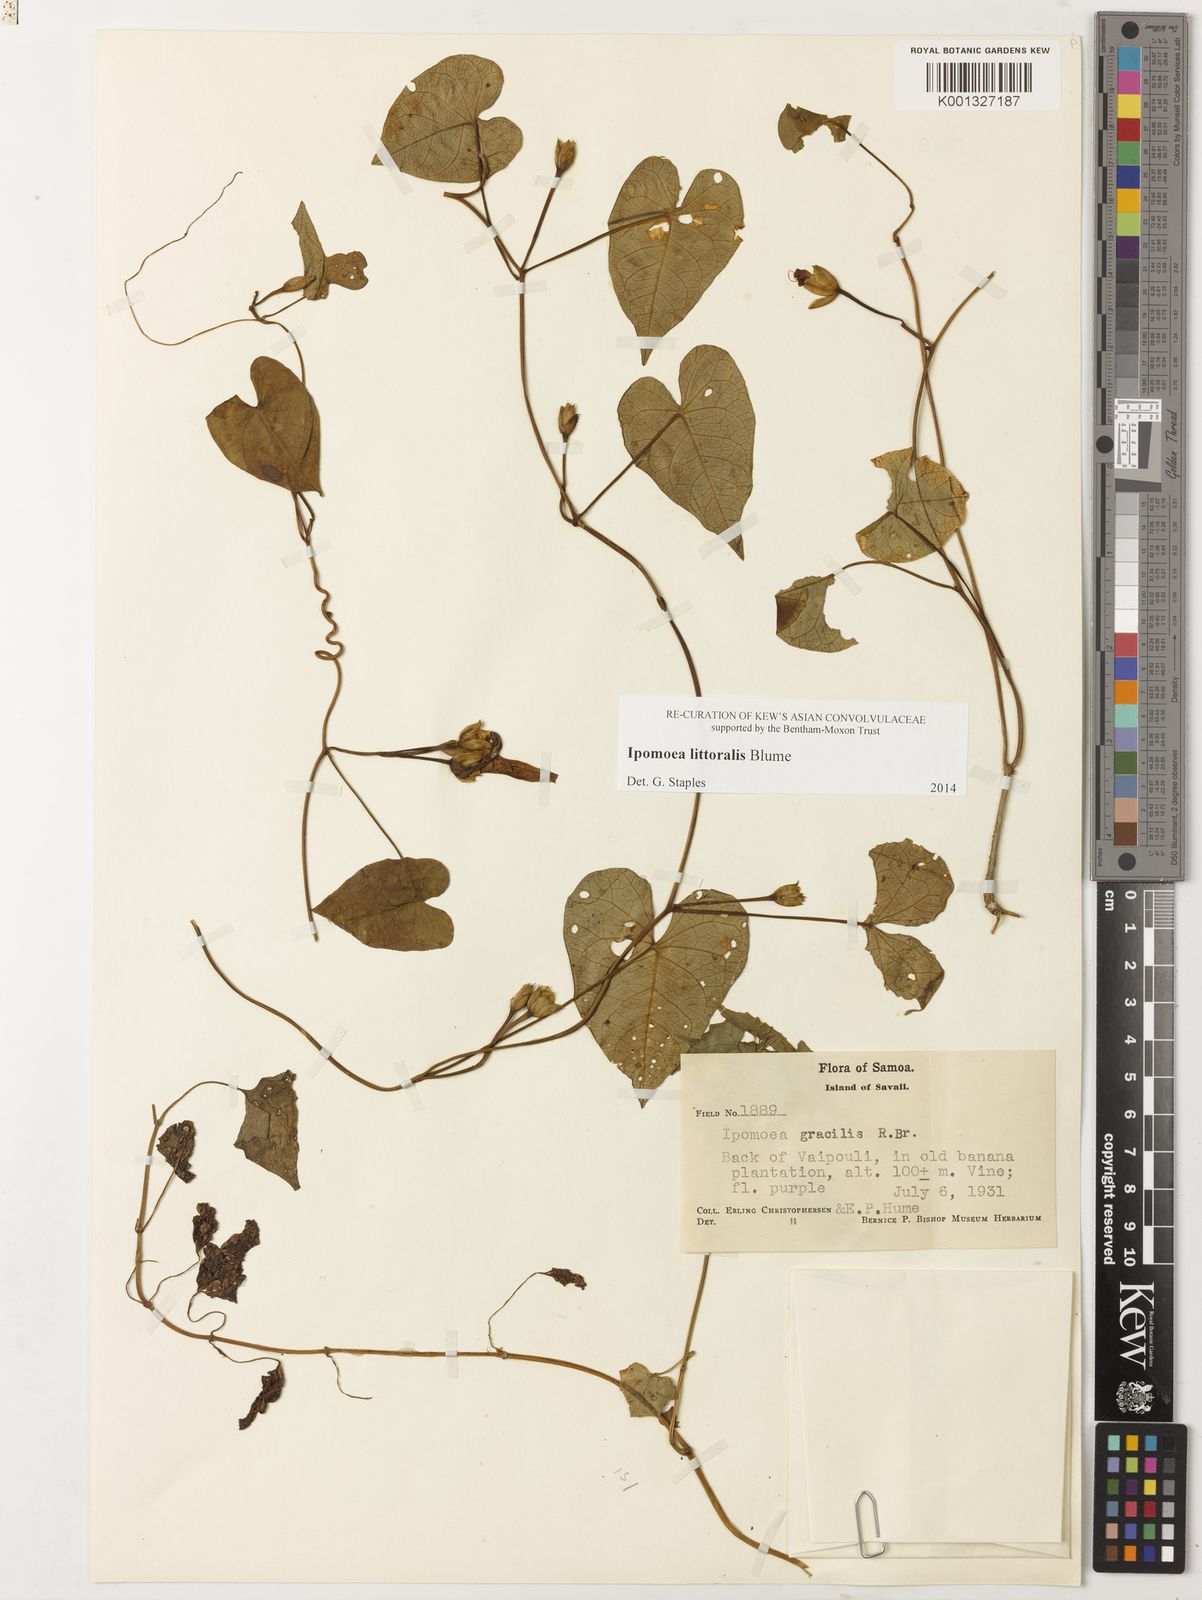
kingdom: Plantae
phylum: Tracheophyta
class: Magnoliopsida
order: Solanales
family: Convolvulaceae
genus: Ipomoea
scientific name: Ipomoea littoralis
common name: Coastal morning glory
